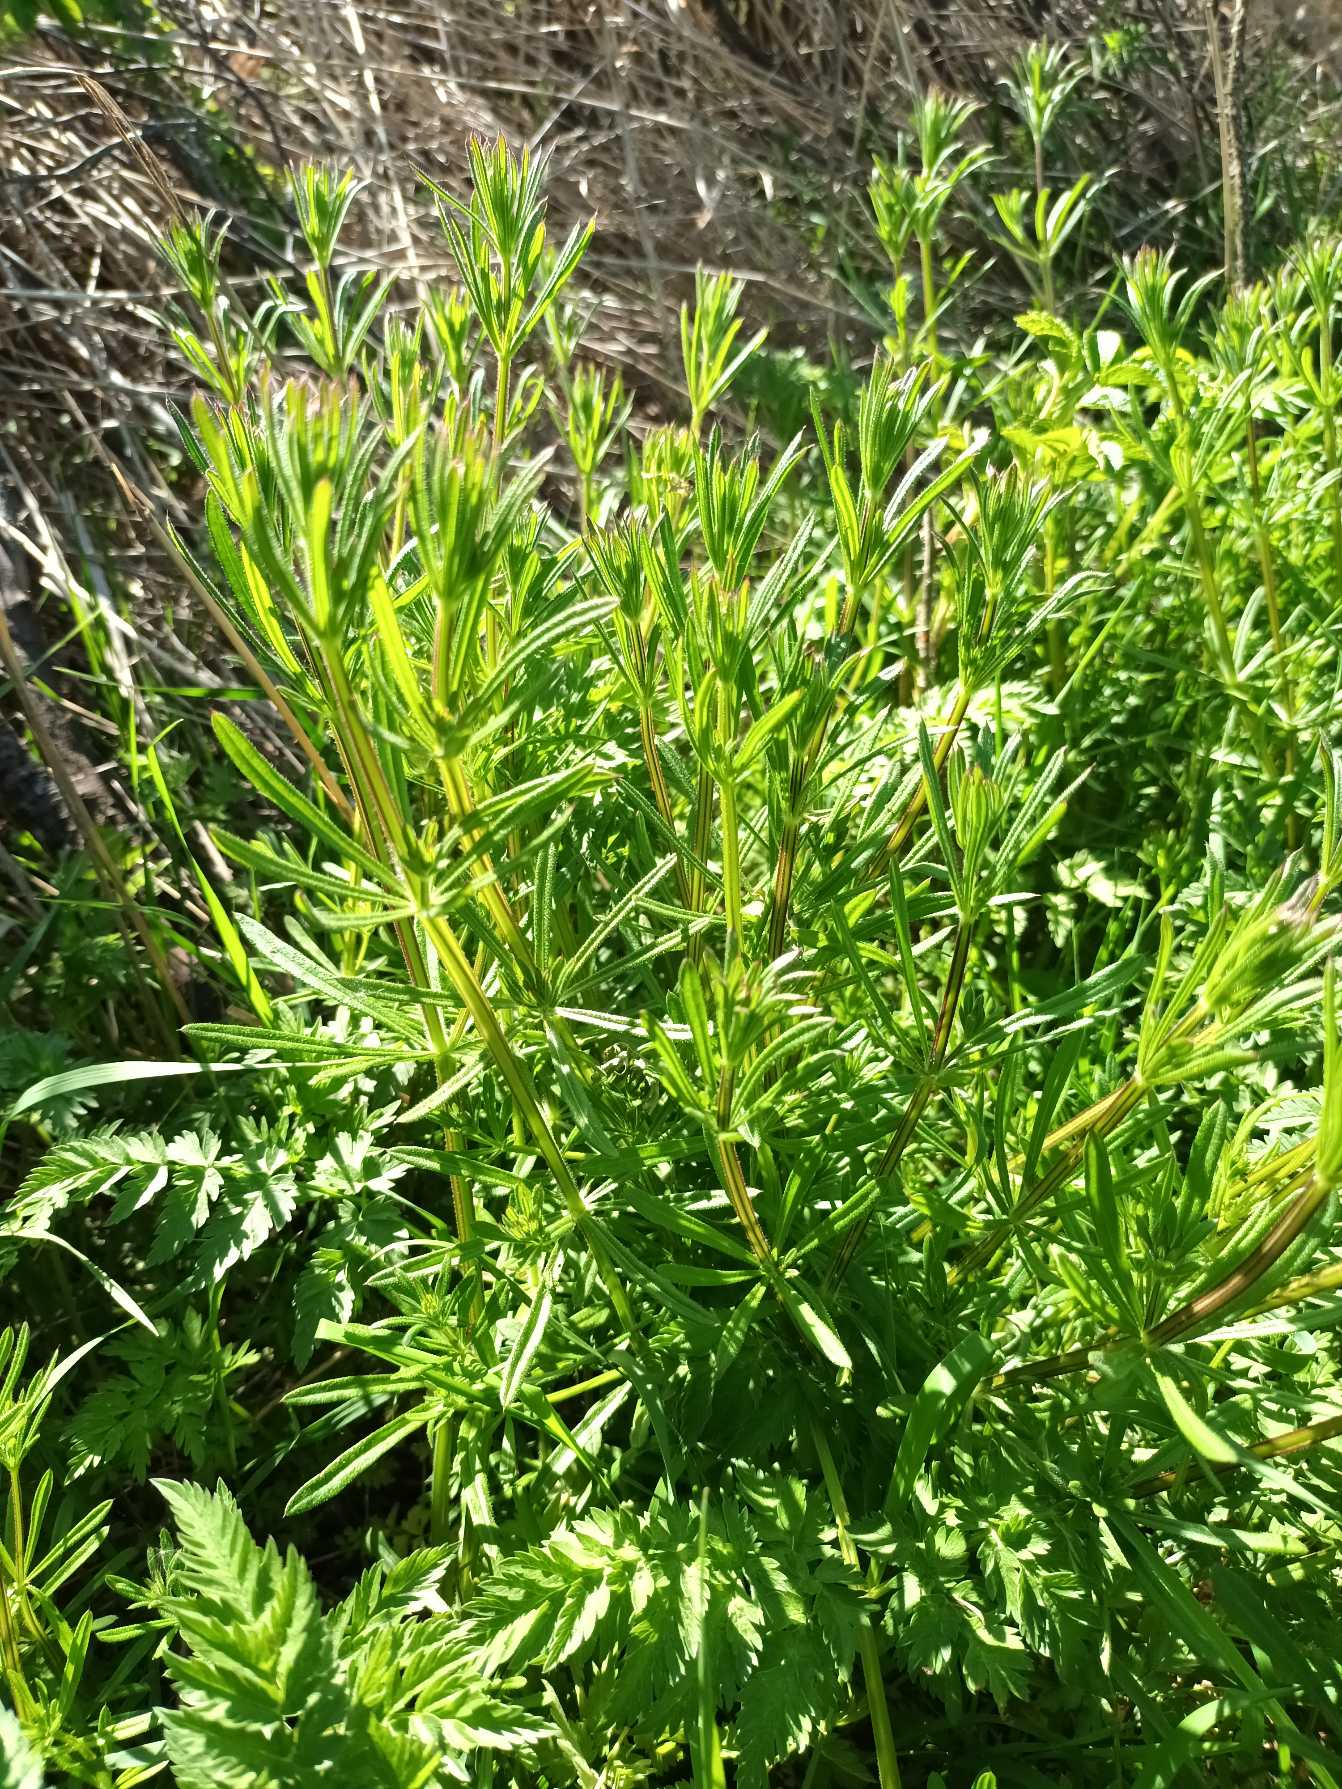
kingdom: Plantae
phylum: Tracheophyta
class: Magnoliopsida
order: Gentianales
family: Rubiaceae
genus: Galium
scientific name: Galium aparine
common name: Burre-snerre
